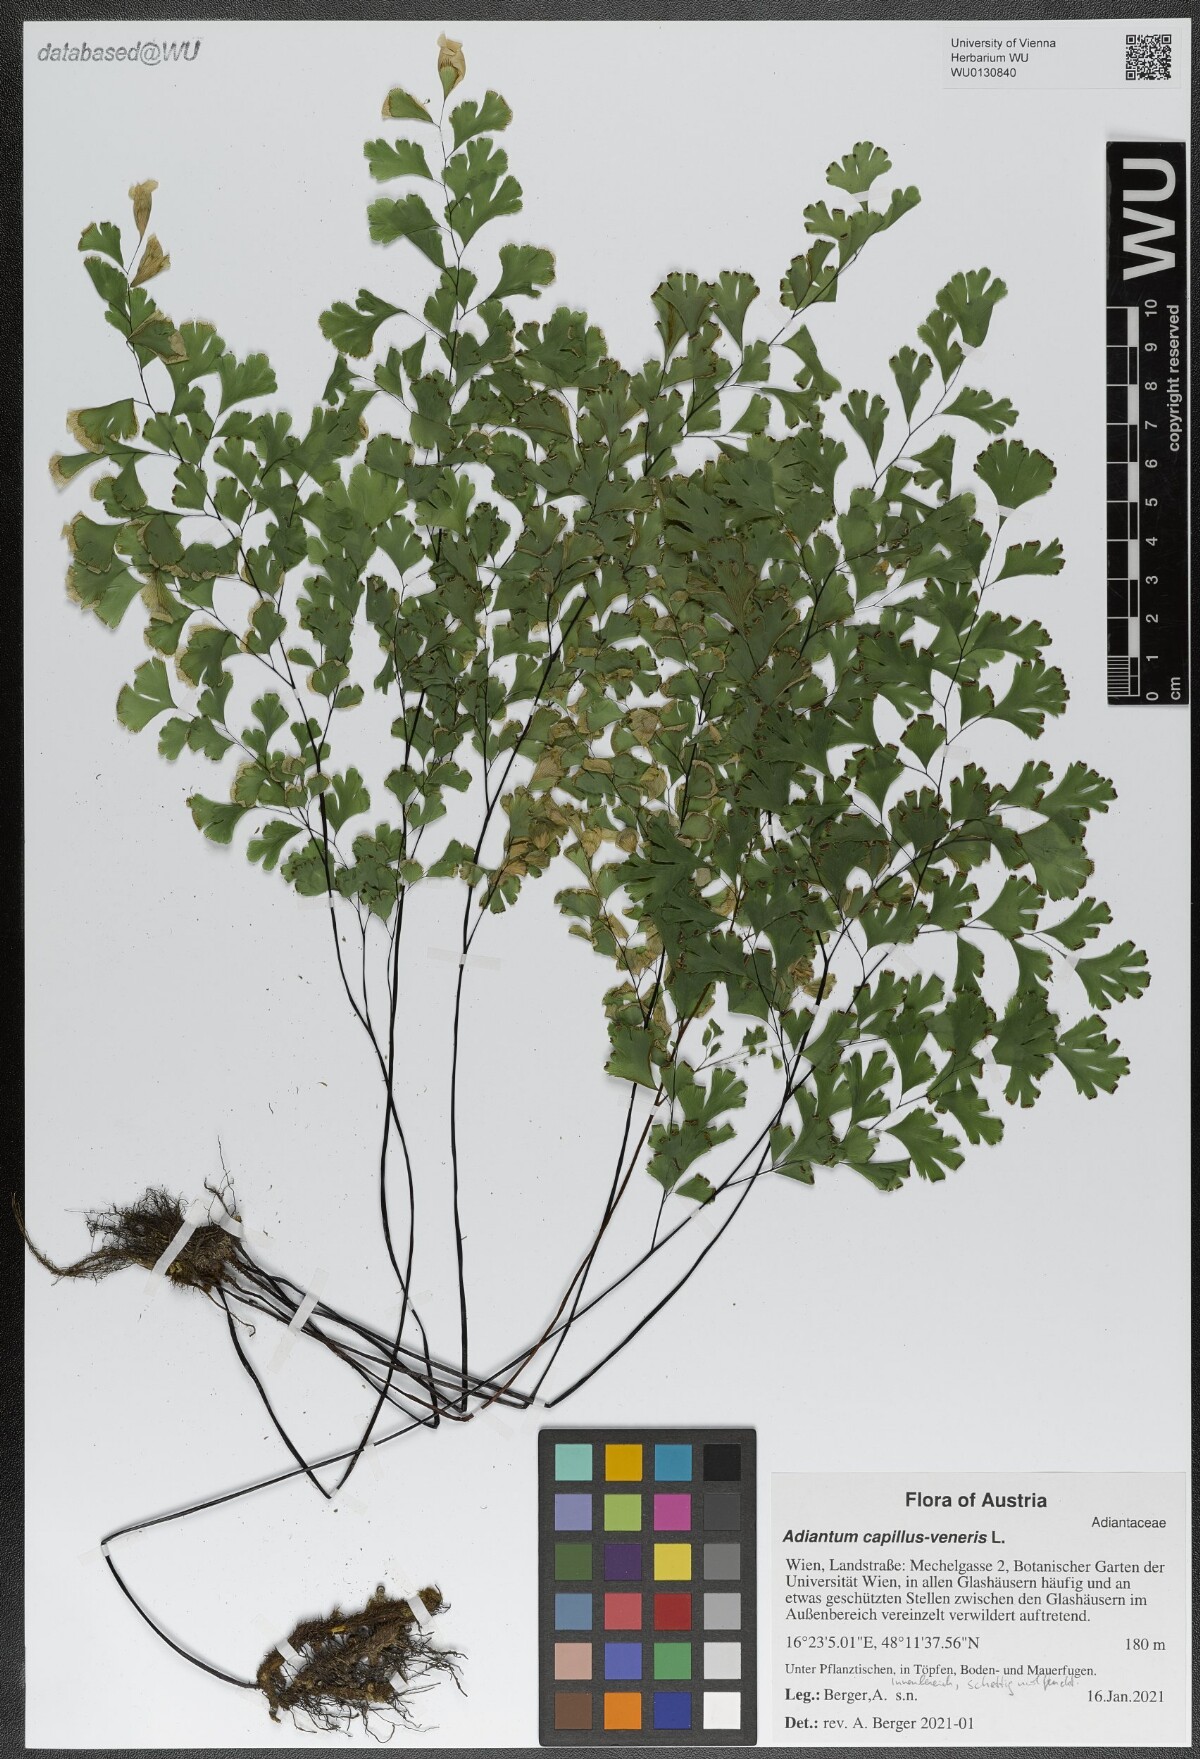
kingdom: Plantae
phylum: Tracheophyta
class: Polypodiopsida
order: Polypodiales
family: Pteridaceae
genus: Adiantum
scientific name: Adiantum capillus-veneris
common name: Maidenhair fern
